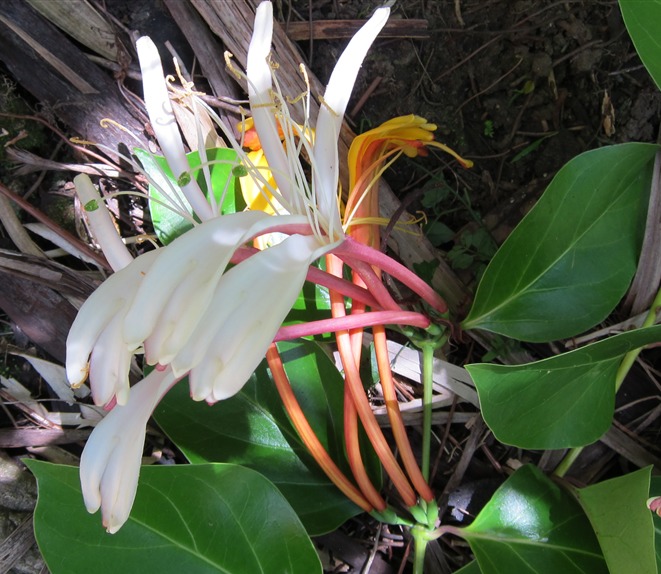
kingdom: Plantae
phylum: Tracheophyta
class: Magnoliopsida
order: Dipsacales
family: Caprifoliaceae
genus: Lonicera
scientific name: Lonicera hildebrandiana
